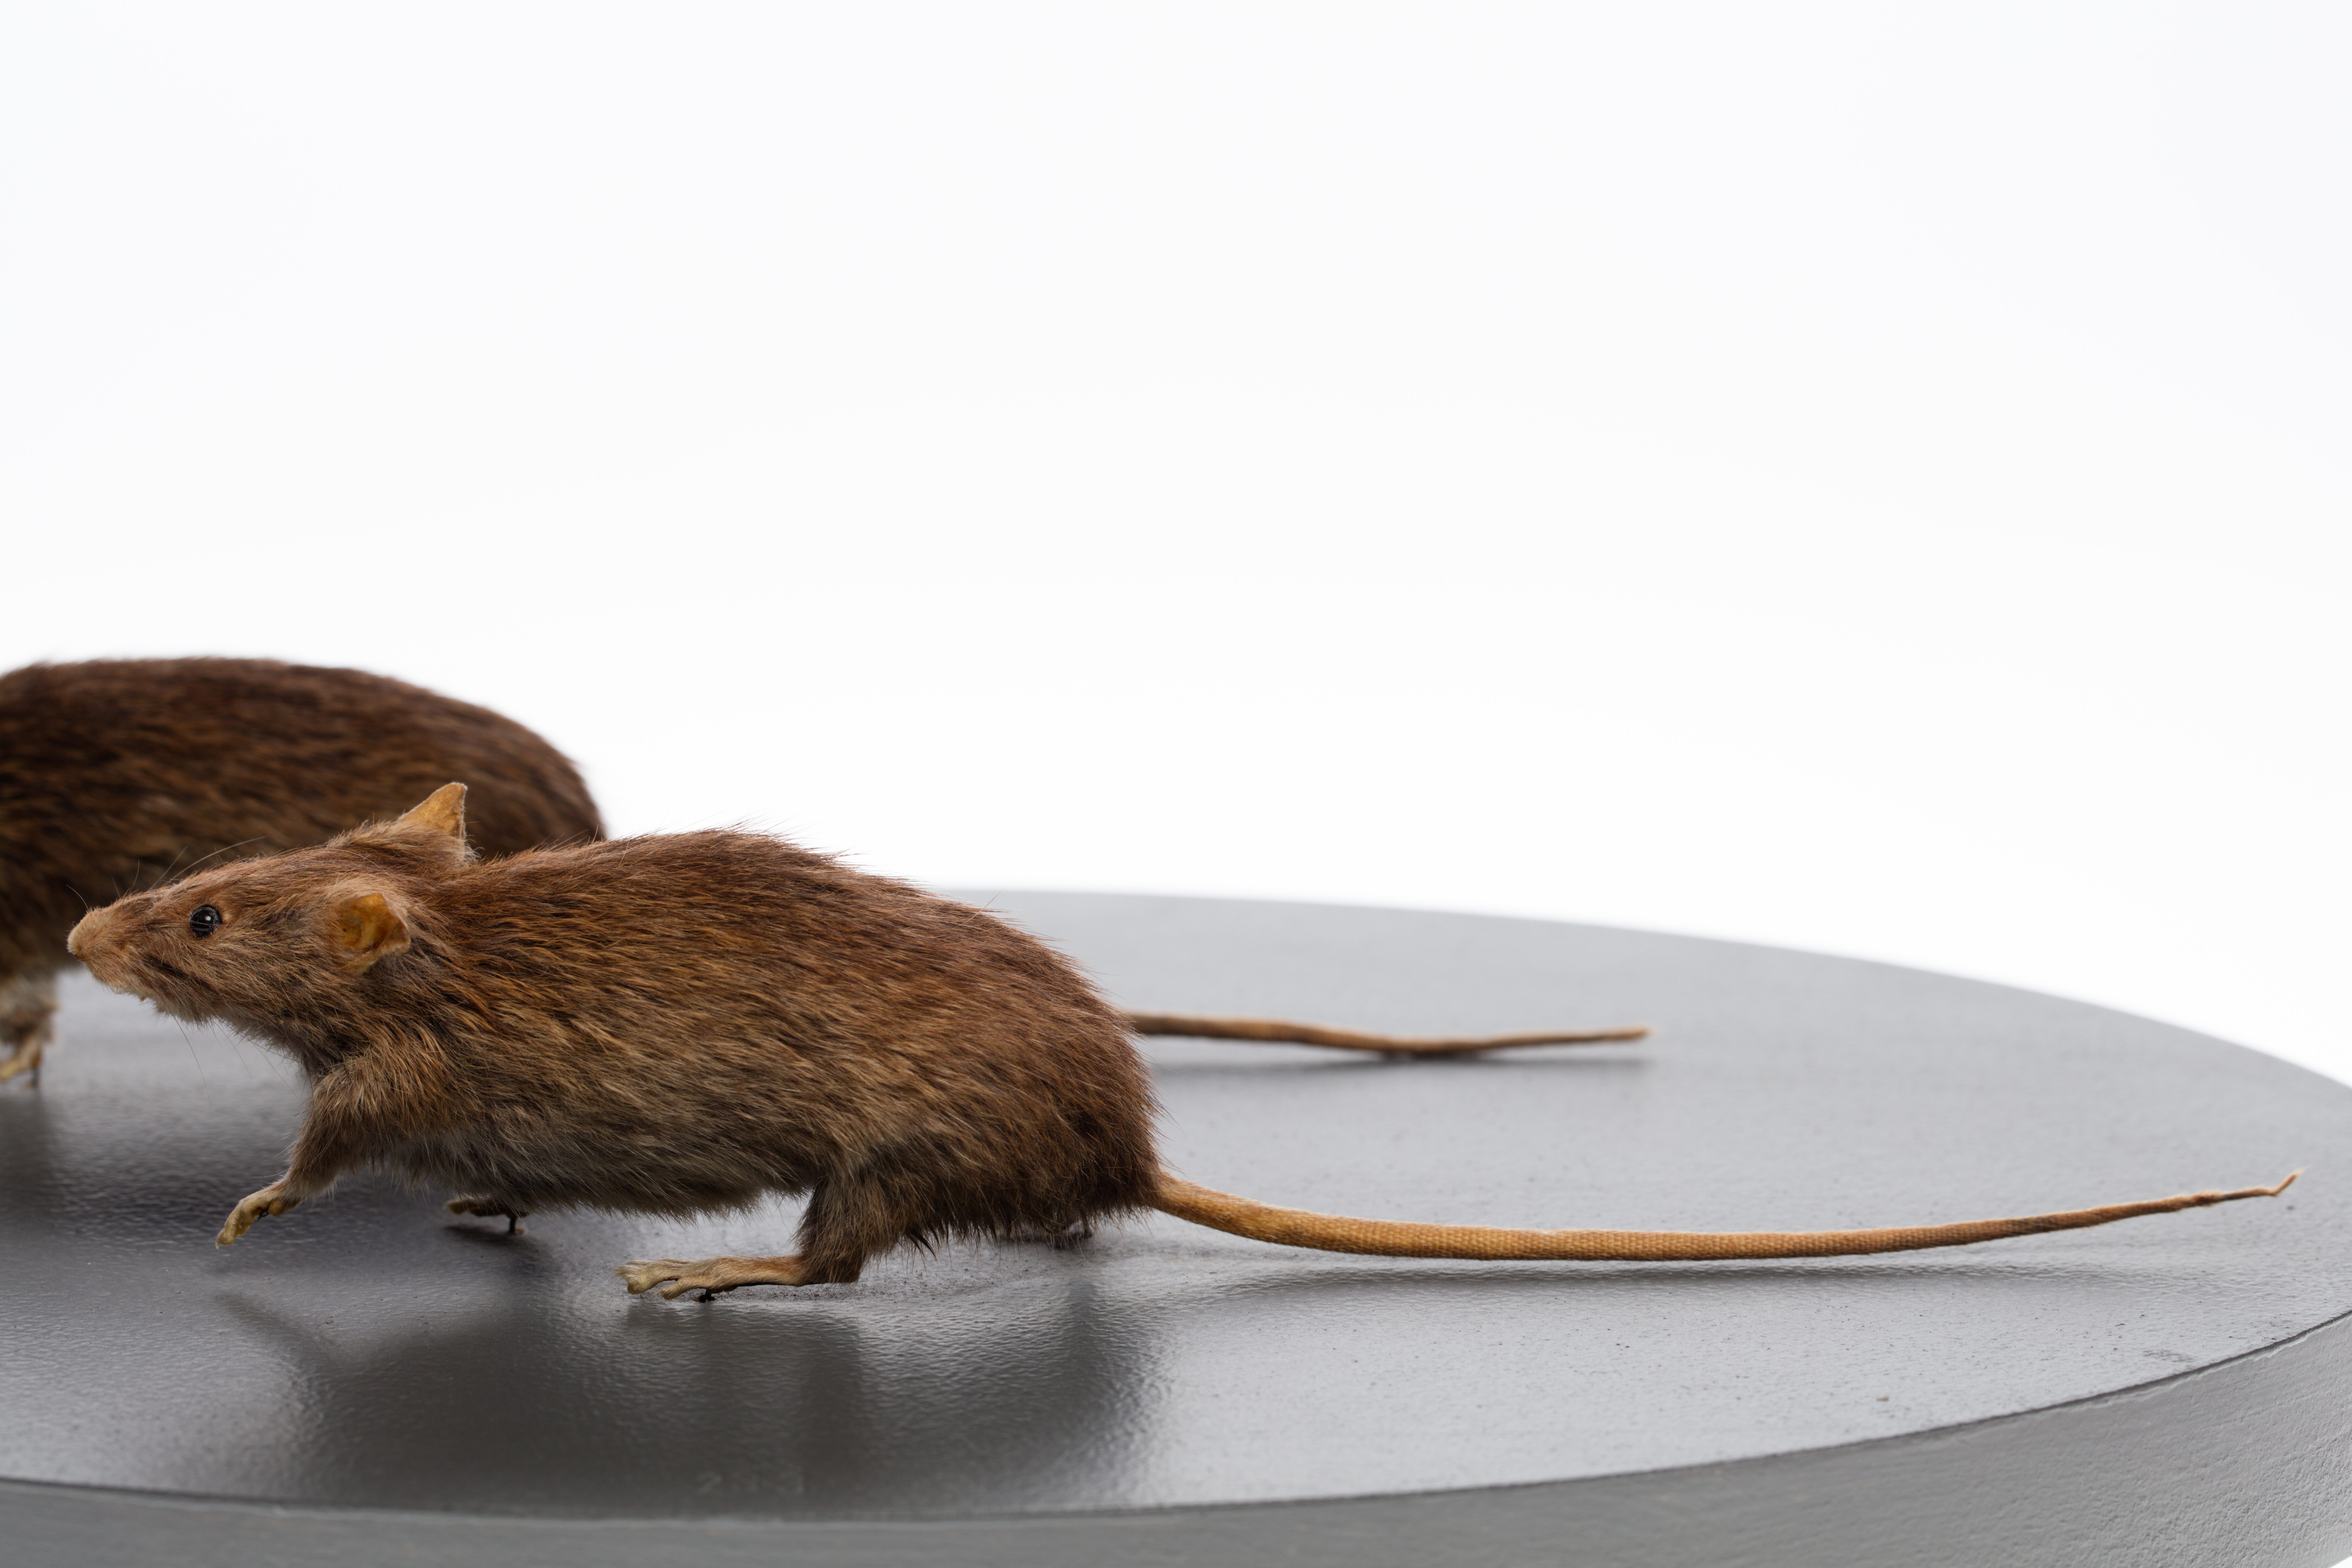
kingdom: Animalia
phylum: Chordata
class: Mammalia
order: Rodentia
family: Muridae
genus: Rattus
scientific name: Rattus exulans
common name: Polynesian rat
